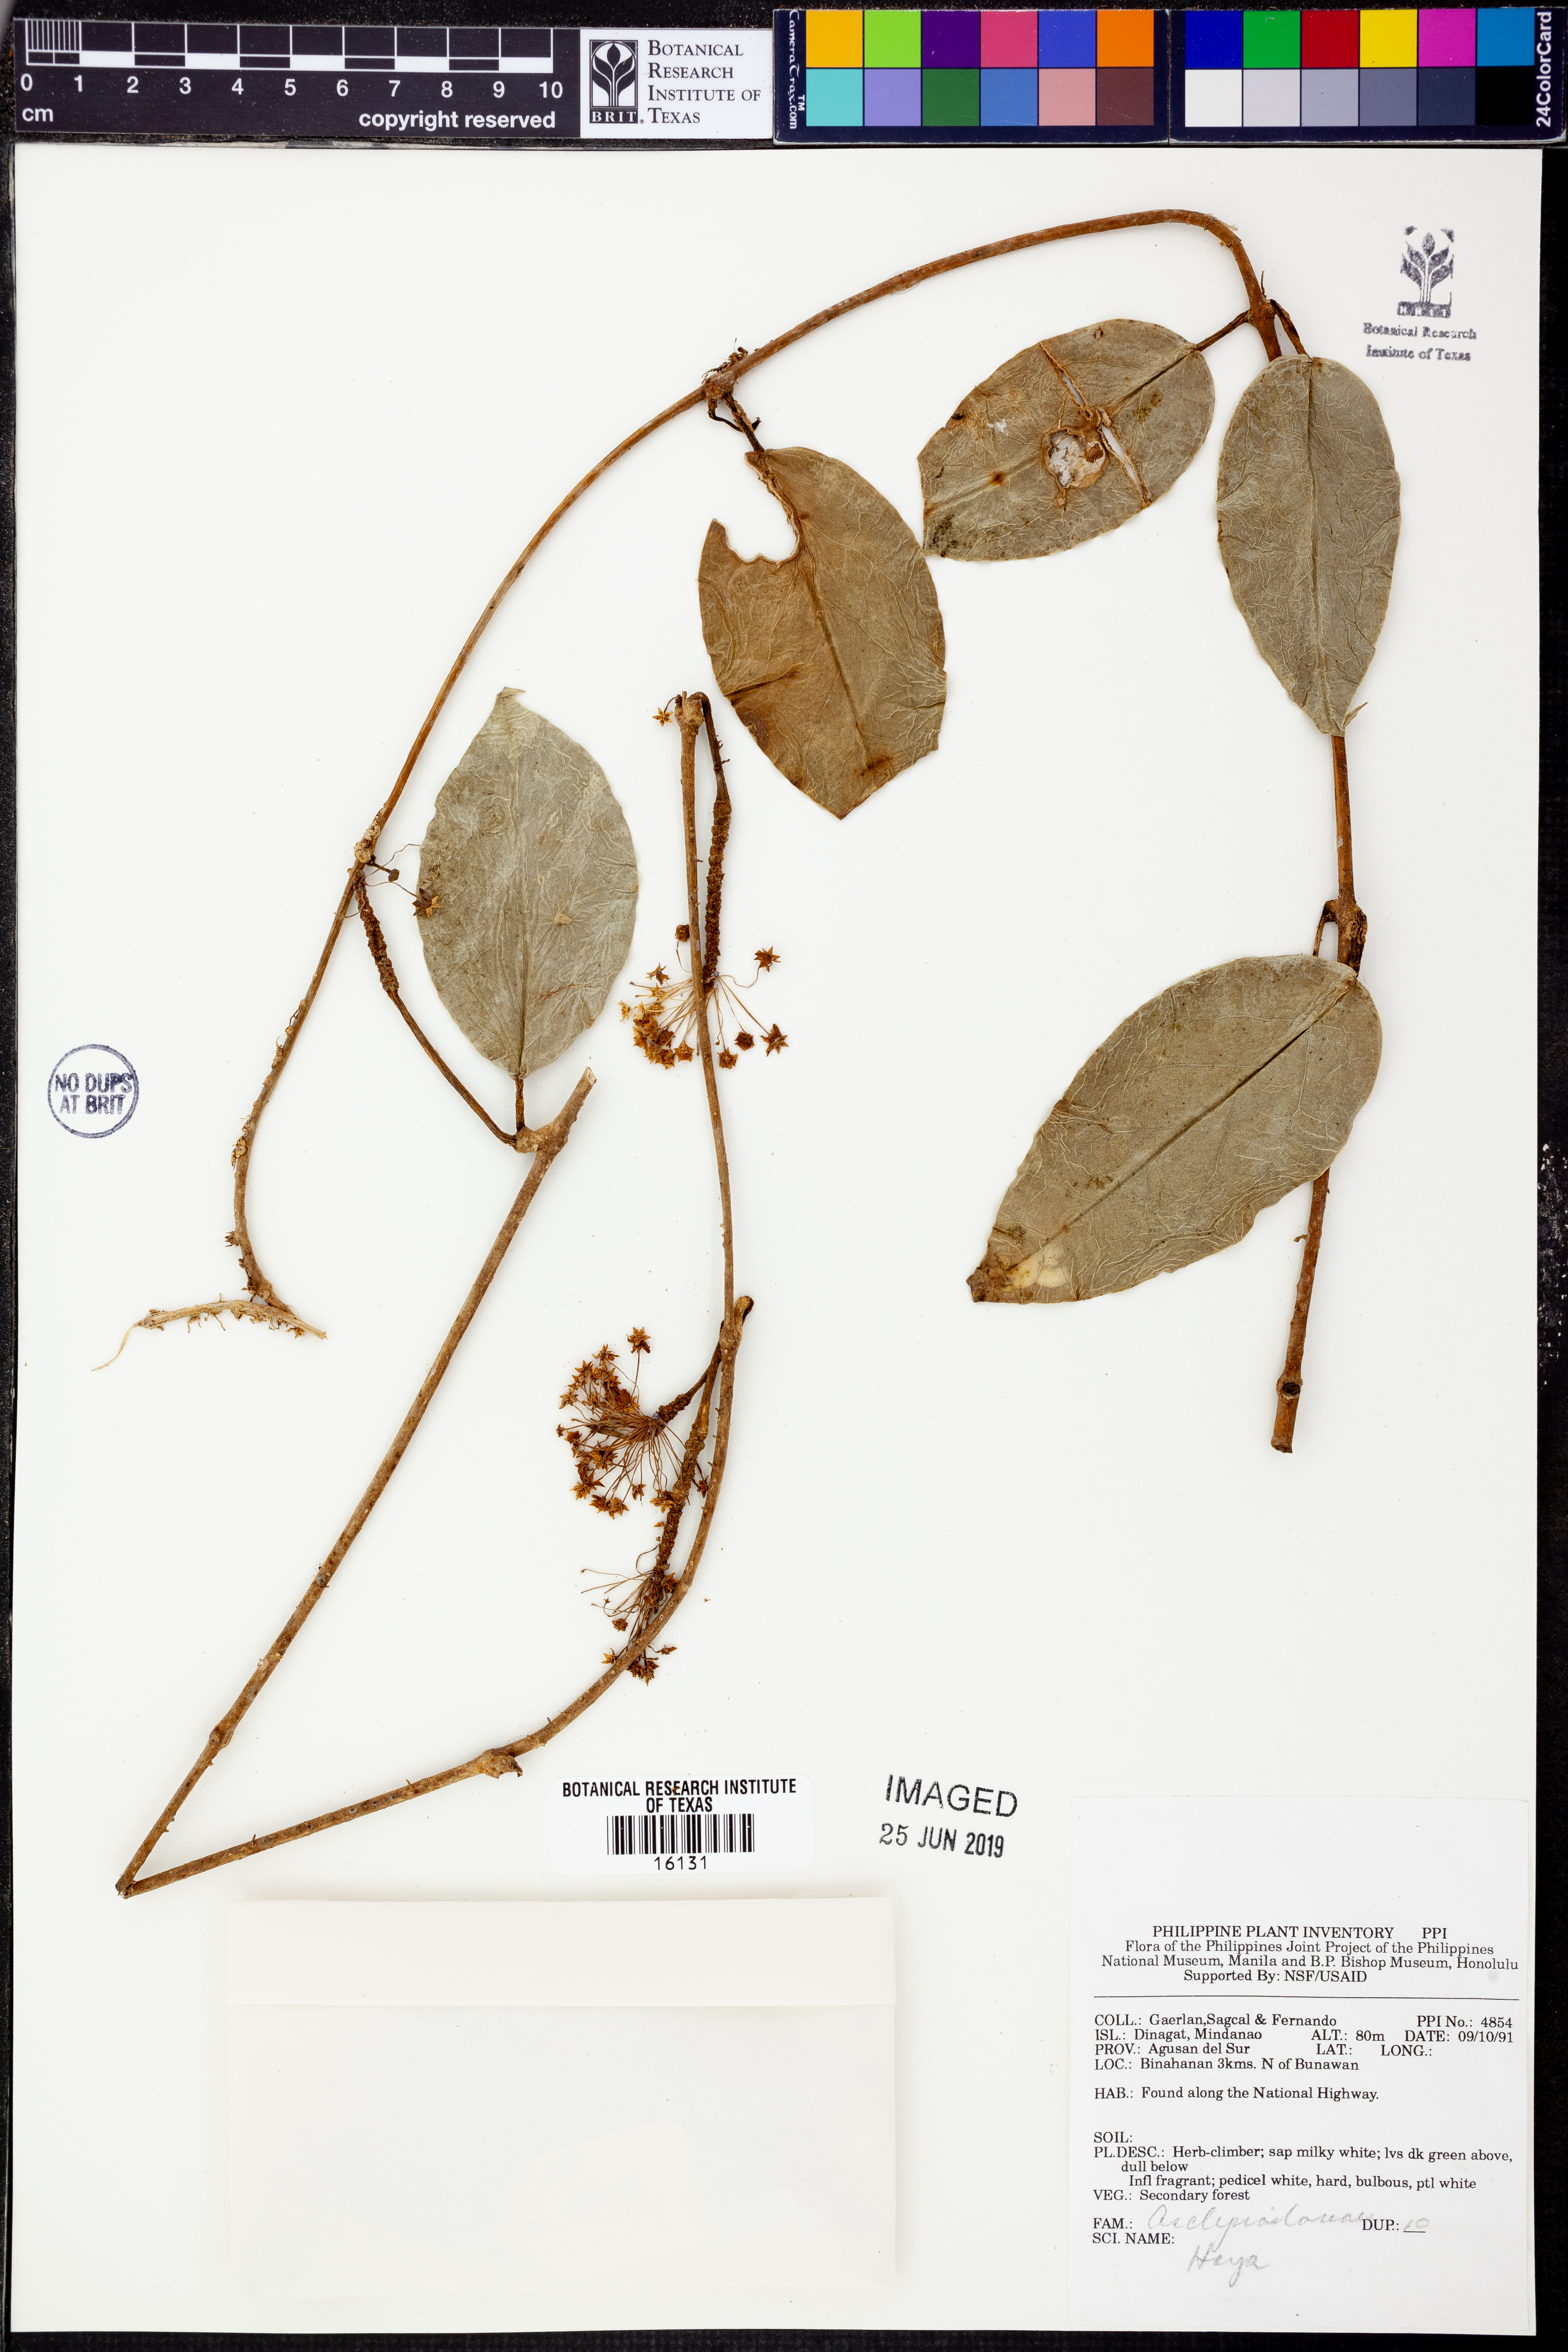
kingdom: Plantae
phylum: Tracheophyta
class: Magnoliopsida
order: Gentianales
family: Apocynaceae
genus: Hoya
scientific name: Hoya
